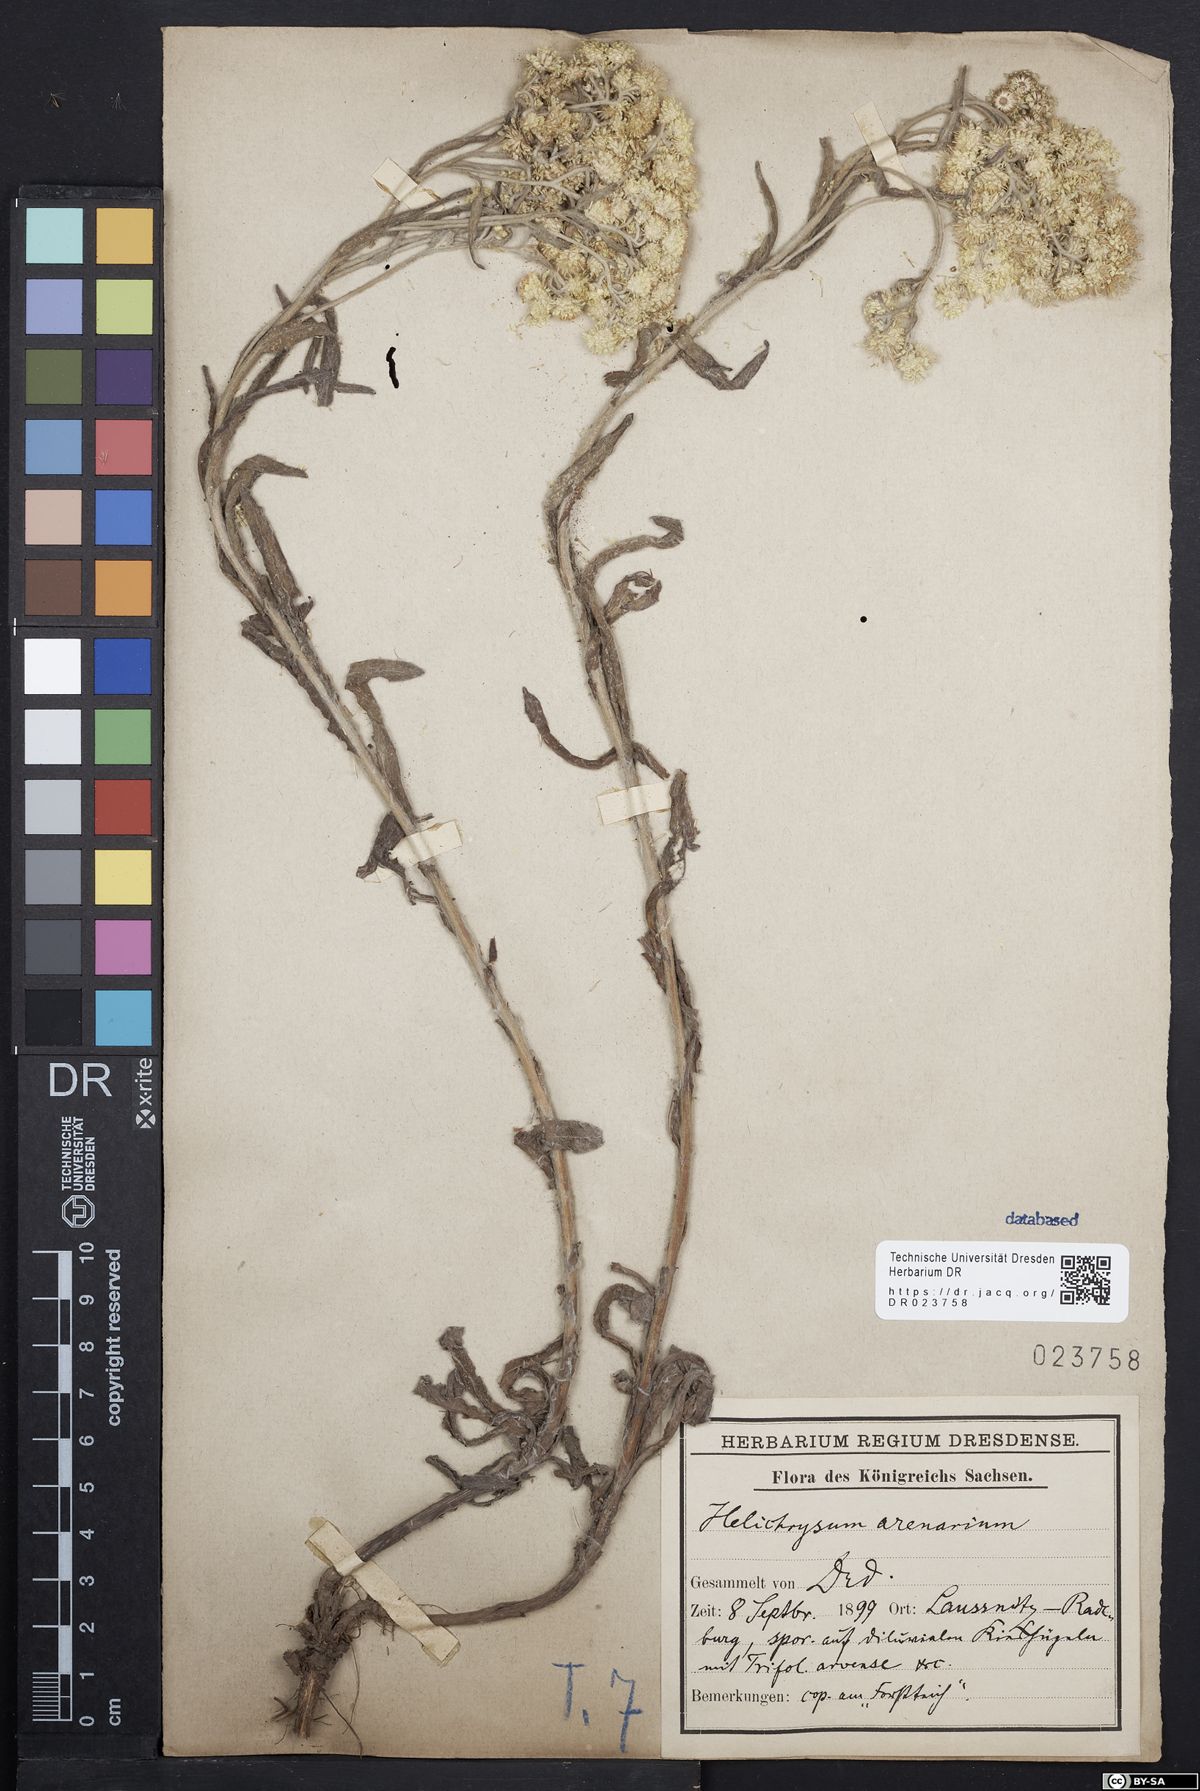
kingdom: Plantae
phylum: Tracheophyta
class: Magnoliopsida
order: Asterales
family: Asteraceae
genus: Helichrysum
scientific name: Helichrysum arenarium
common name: Strawflower
